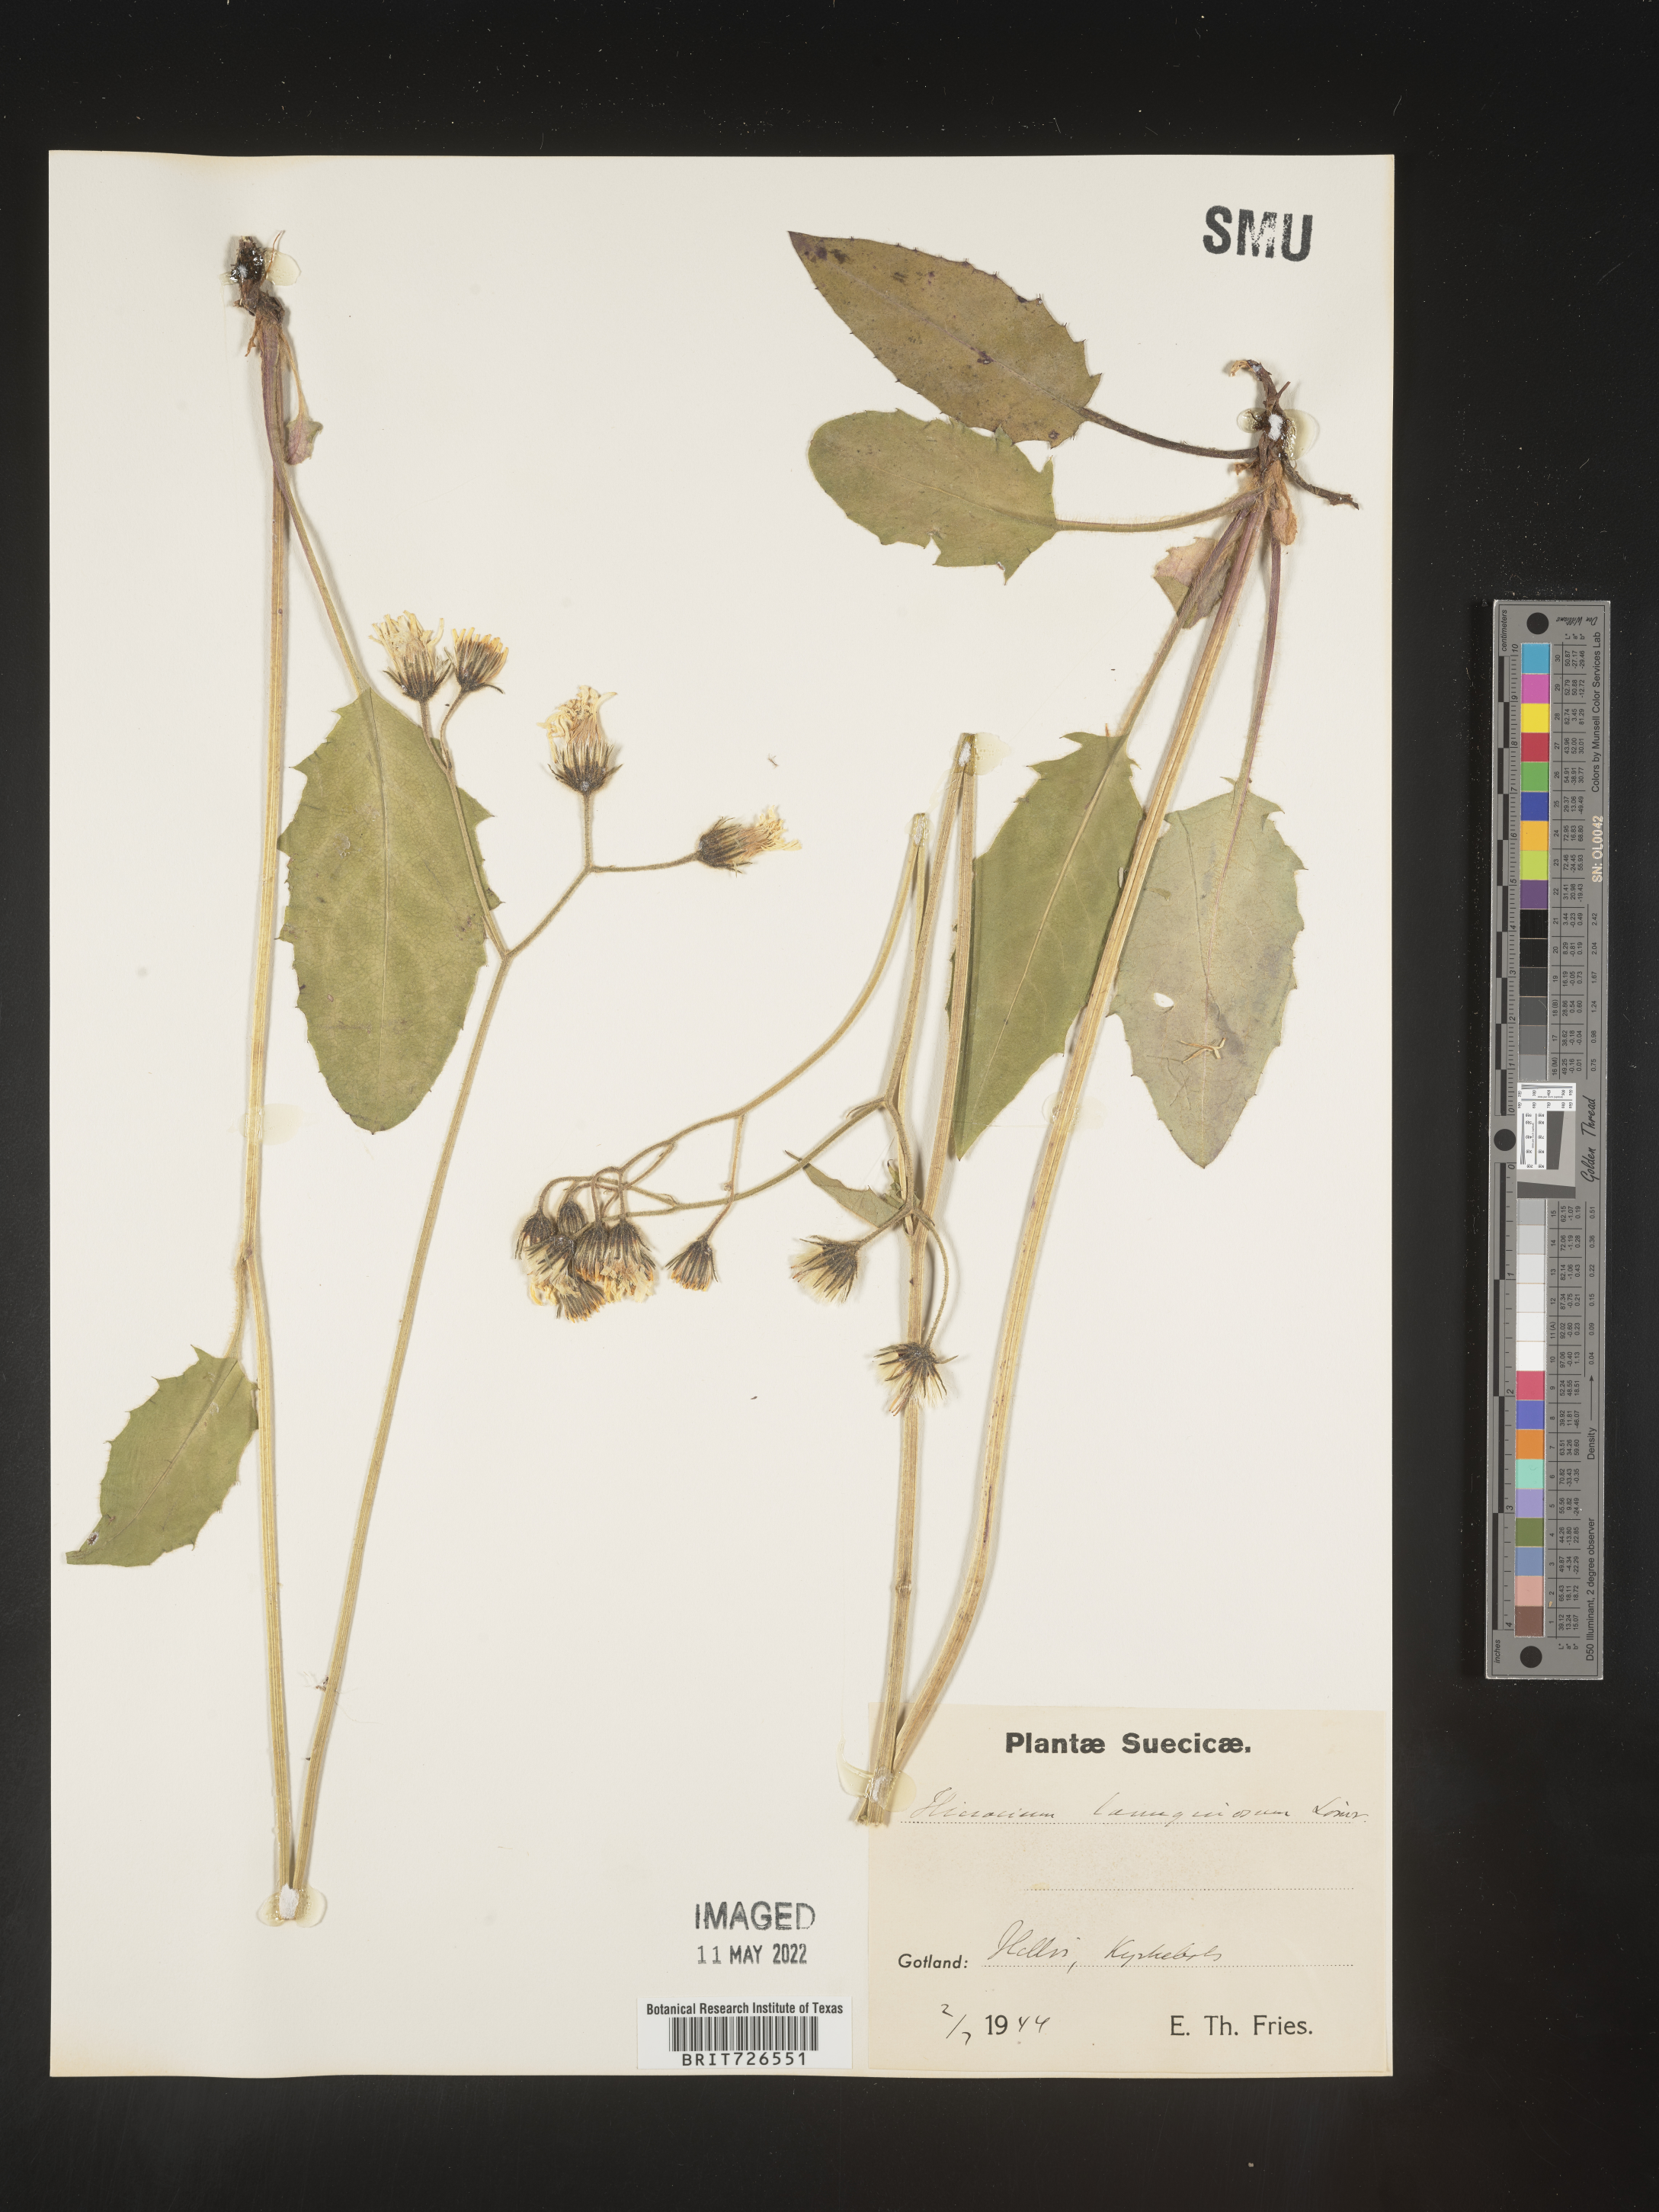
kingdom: Plantae
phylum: Tracheophyta
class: Magnoliopsida
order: Asterales
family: Asteraceae
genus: Hieracium
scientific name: Hieracium
